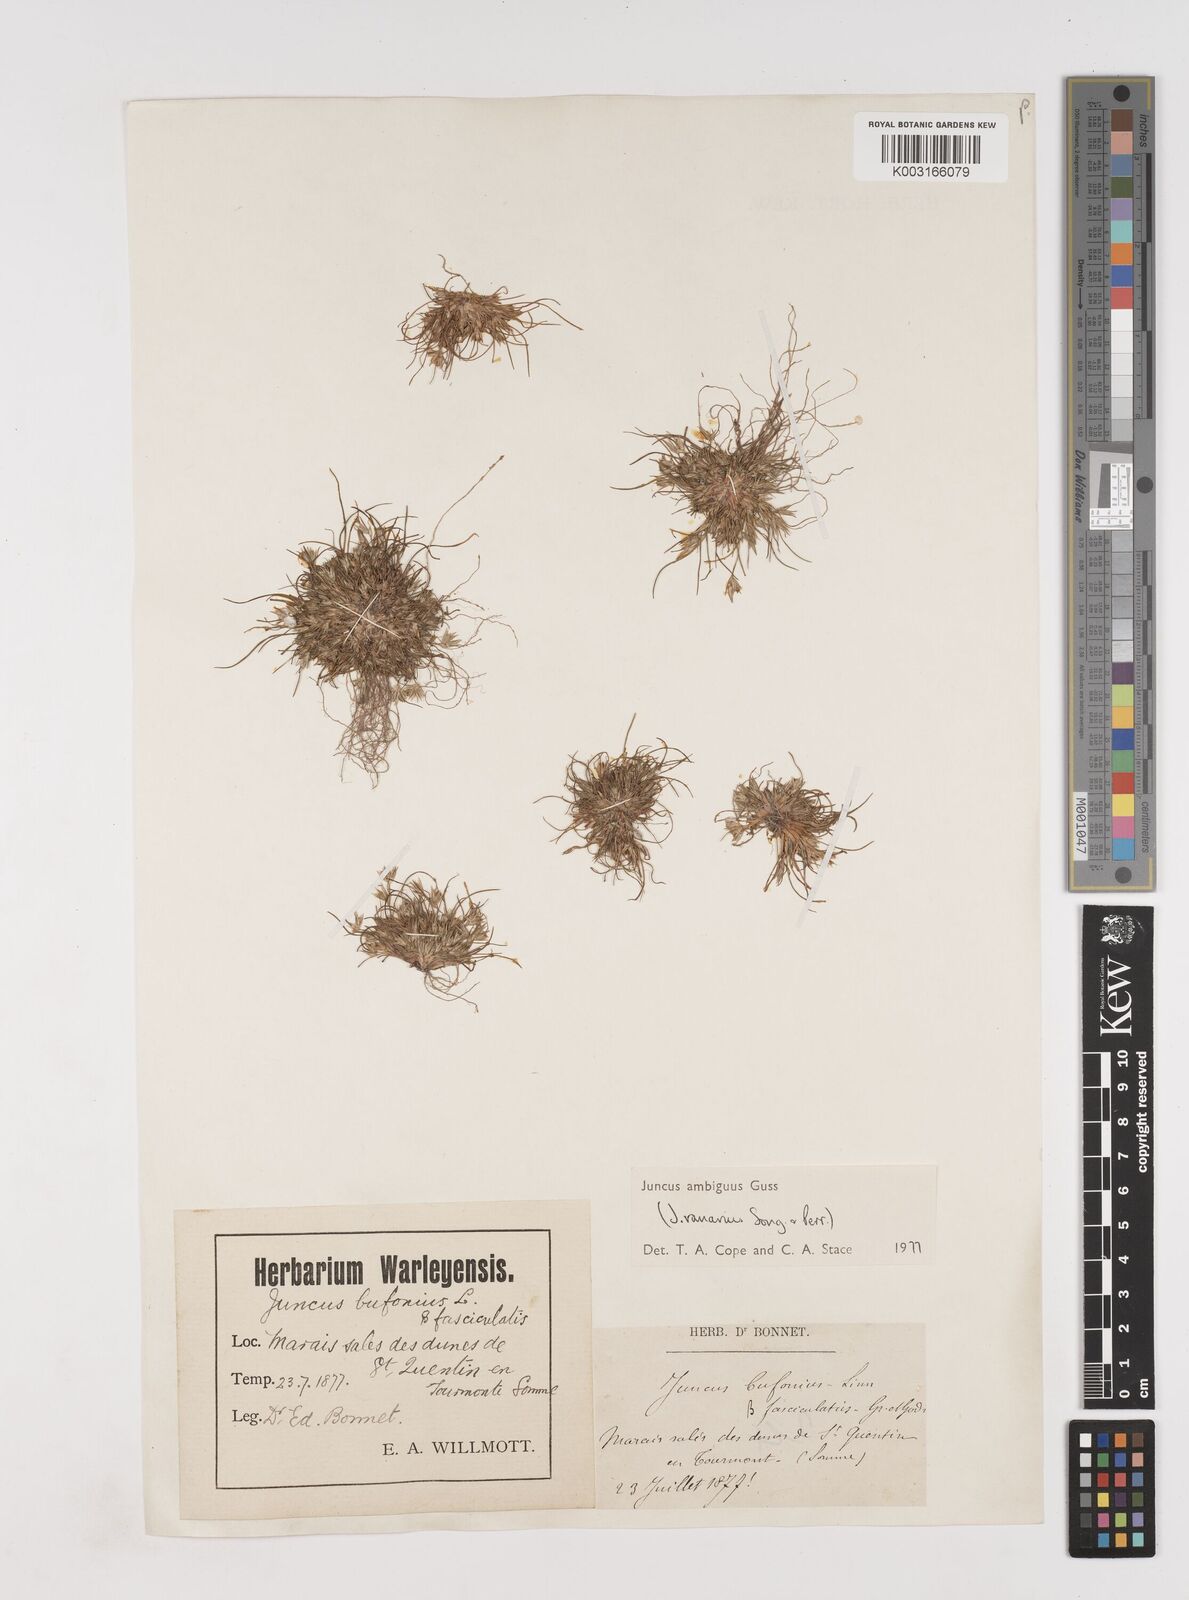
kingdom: Plantae
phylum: Tracheophyta
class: Liliopsida
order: Poales
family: Juncaceae
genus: Juncus
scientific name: Juncus hybridus
